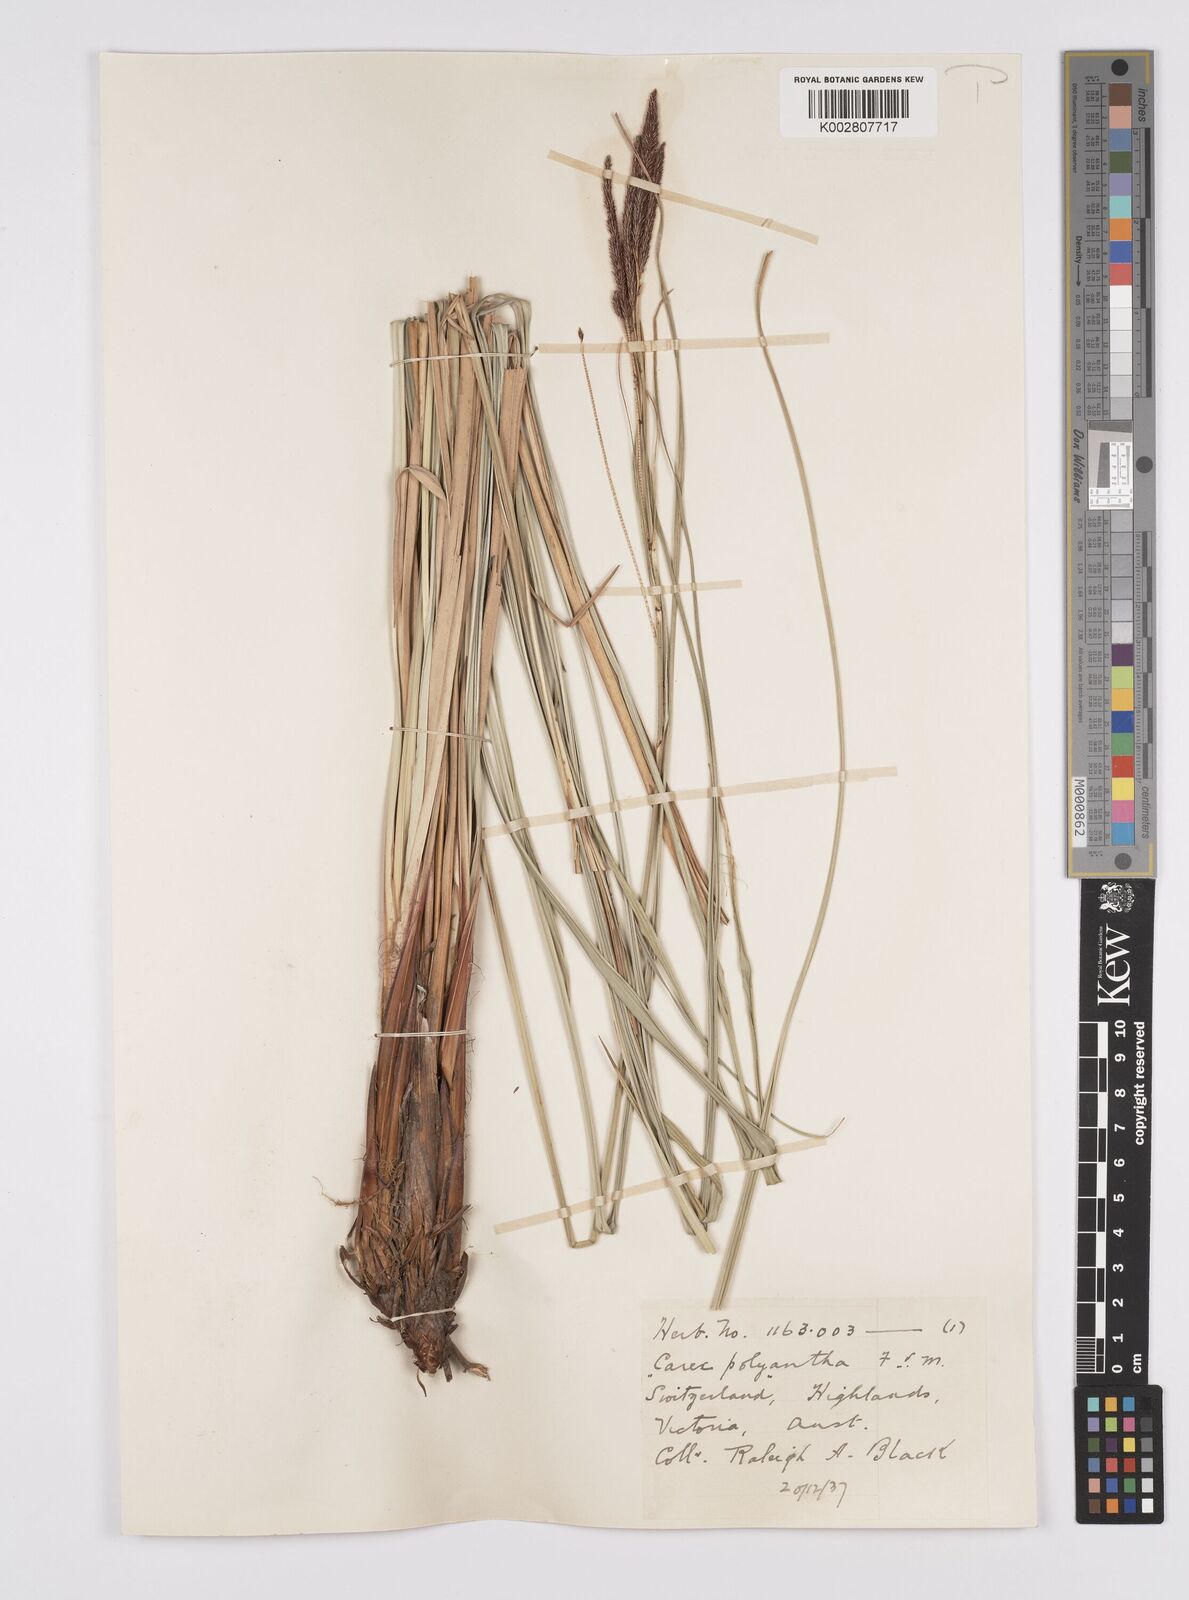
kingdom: Plantae
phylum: Tracheophyta
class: Liliopsida
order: Poales
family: Cyperaceae
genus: Carex
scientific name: Carex polyantha
